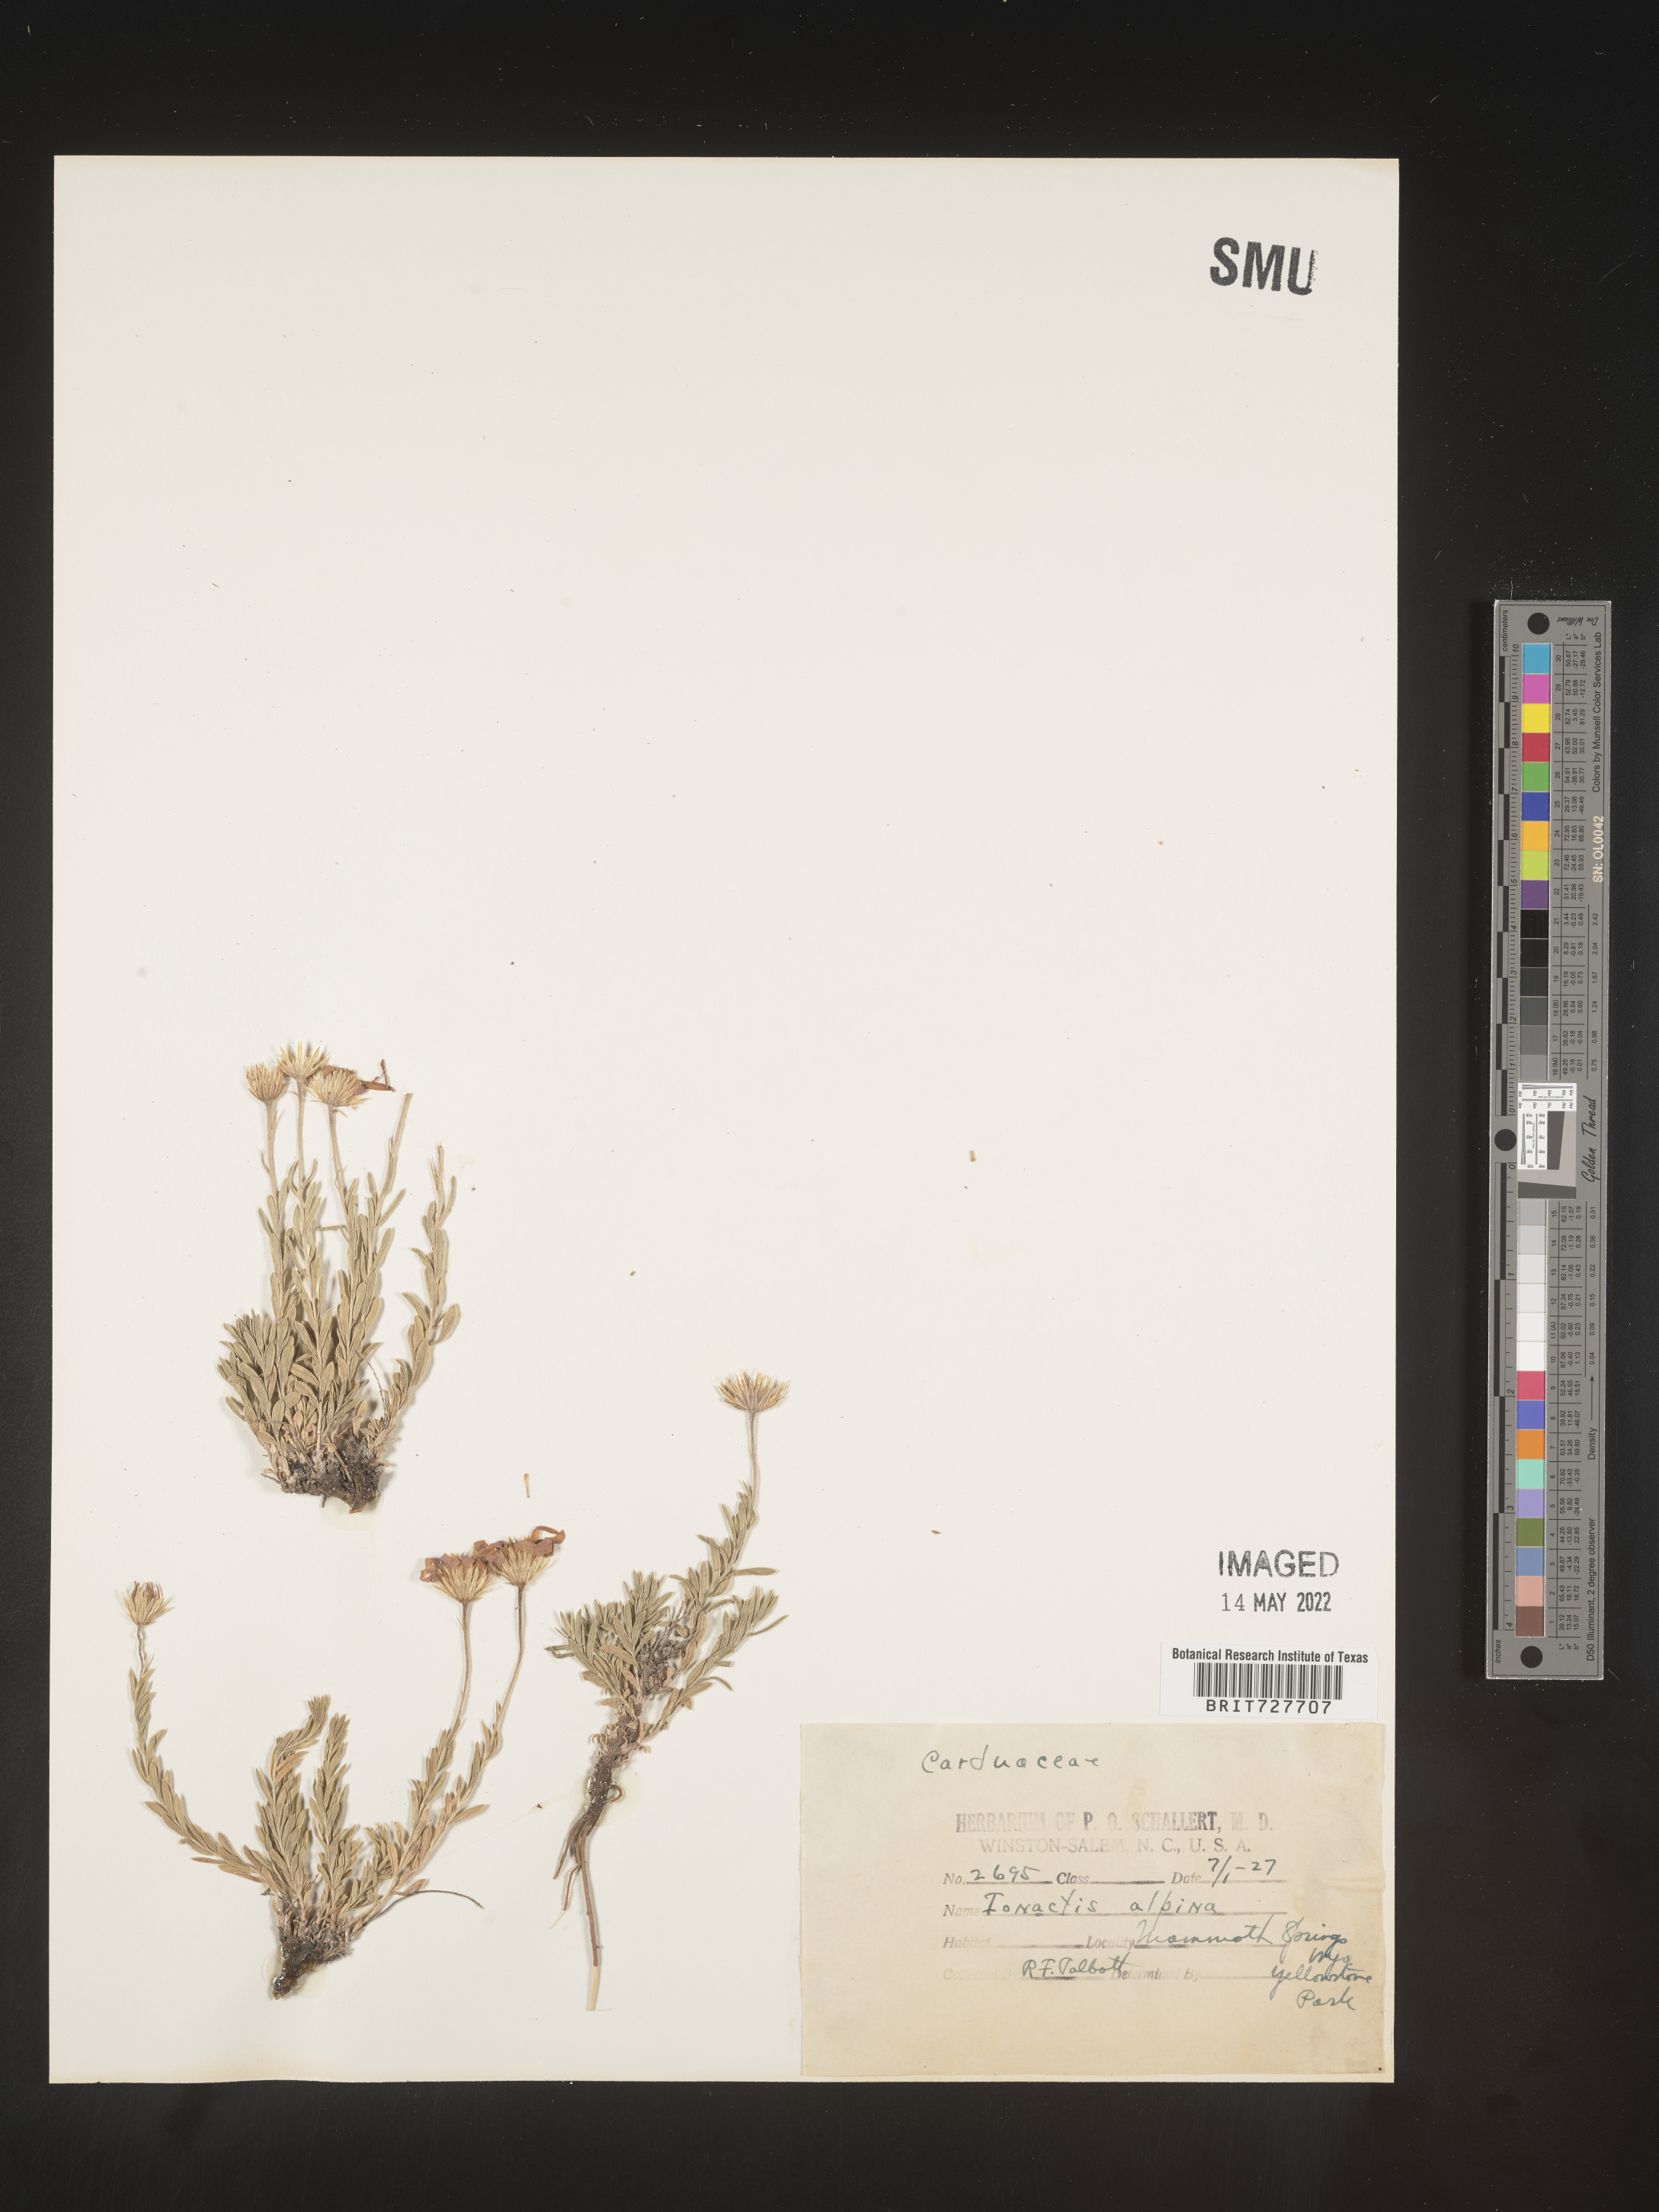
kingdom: Plantae
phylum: Tracheophyta
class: Magnoliopsida
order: Asterales
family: Asteraceae
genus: Ionactis
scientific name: Ionactis alpina
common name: Crag aster
